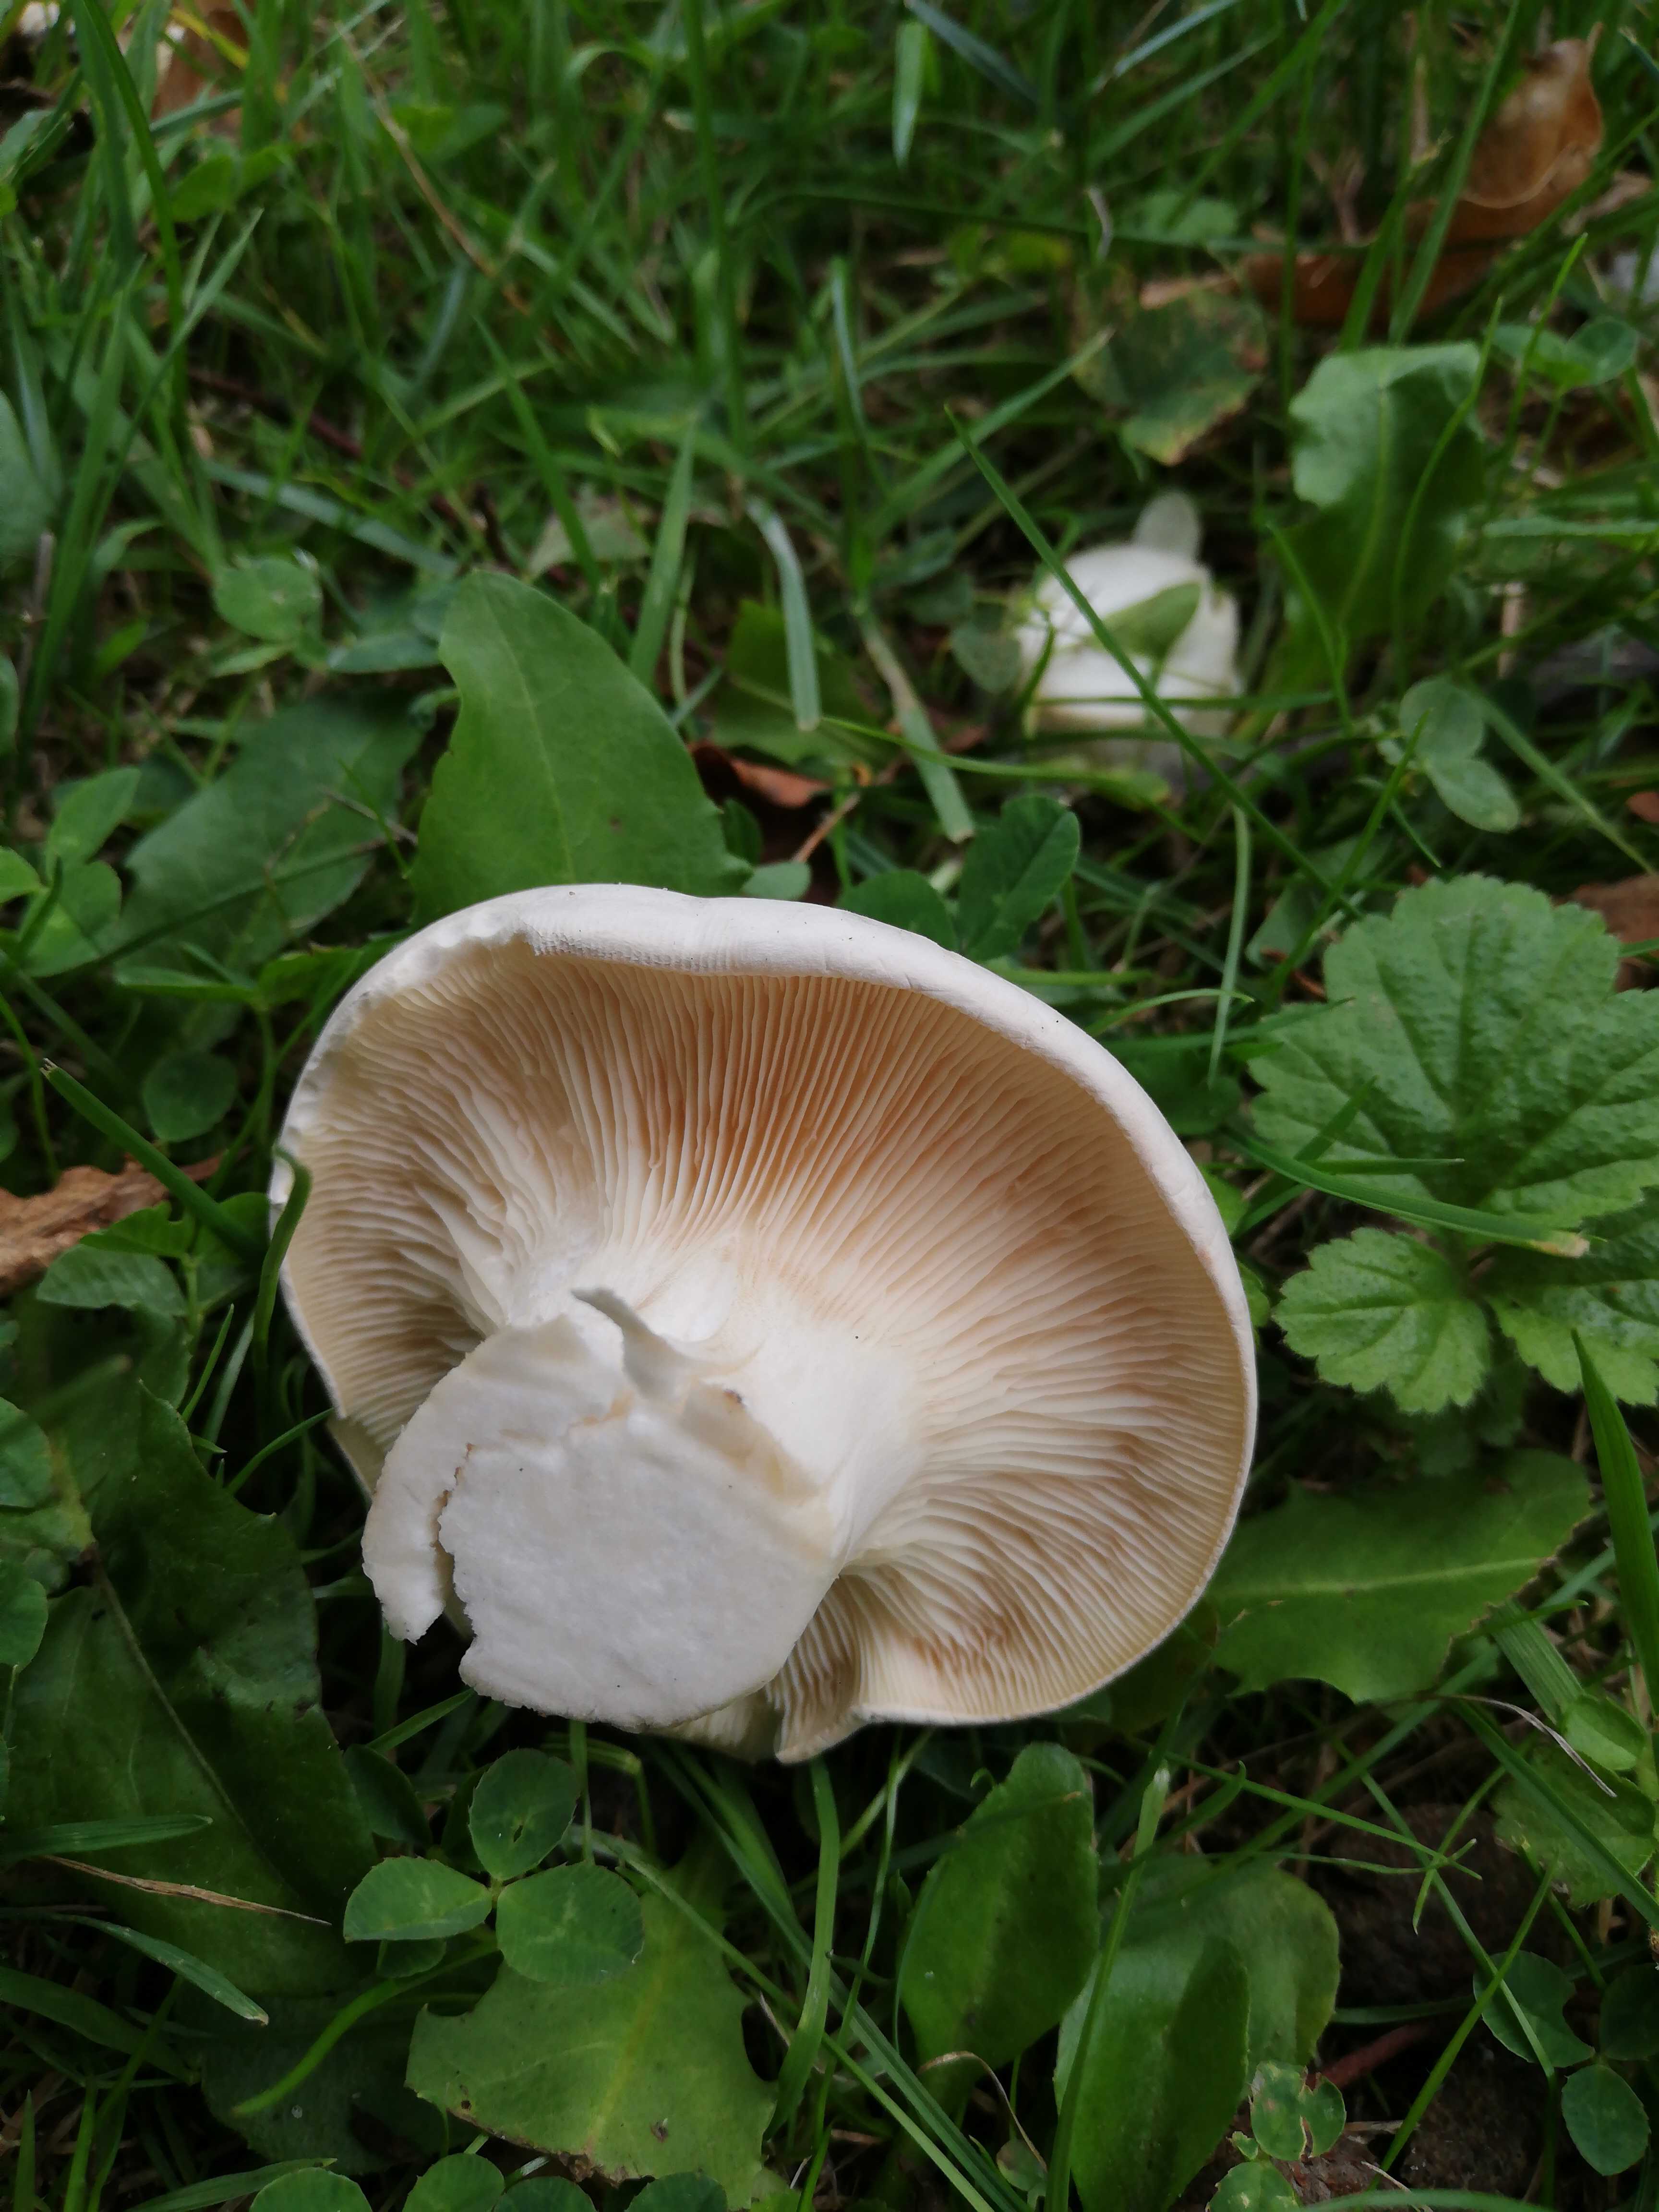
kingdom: Fungi
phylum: Basidiomycota
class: Agaricomycetes
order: Agaricales
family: Entolomataceae
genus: Clitopilus
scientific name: Clitopilus prunulus
